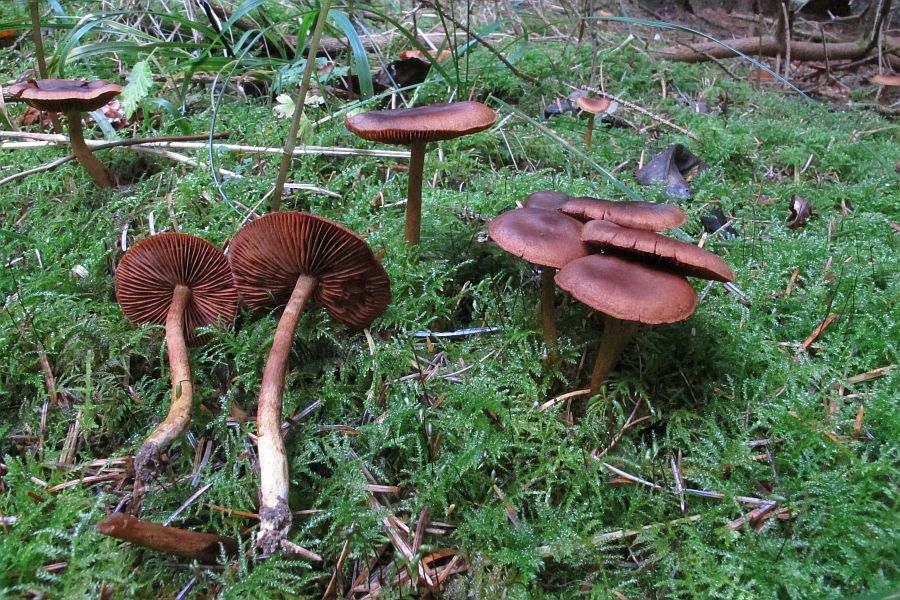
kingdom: Fungi
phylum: Basidiomycota
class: Agaricomycetes
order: Agaricales
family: Cortinariaceae
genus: Cortinarius
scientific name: Cortinarius cinnamomeus
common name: kanel-slørhat
